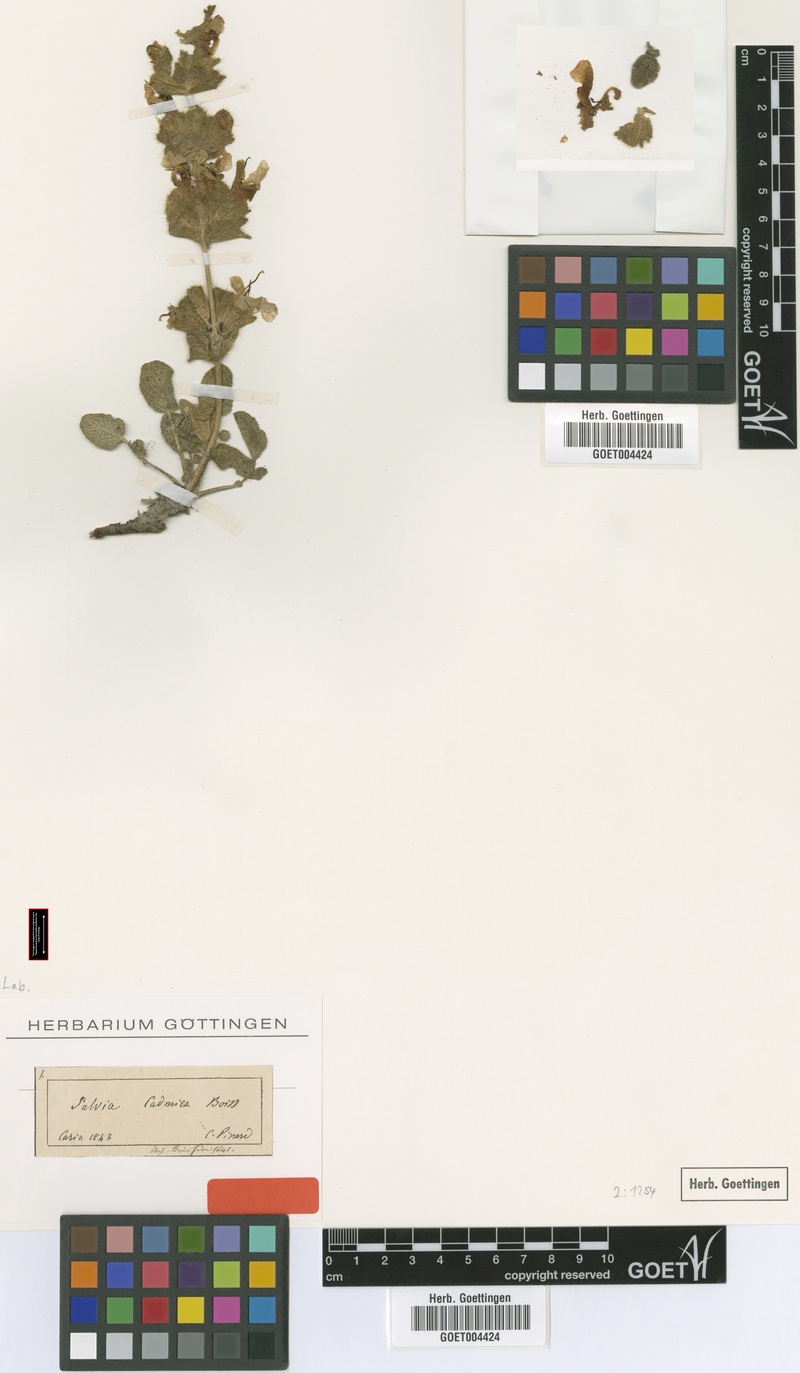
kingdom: Plantae
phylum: Tracheophyta
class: Magnoliopsida
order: Lamiales
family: Lamiaceae
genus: Salvia
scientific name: Salvia cadmica
